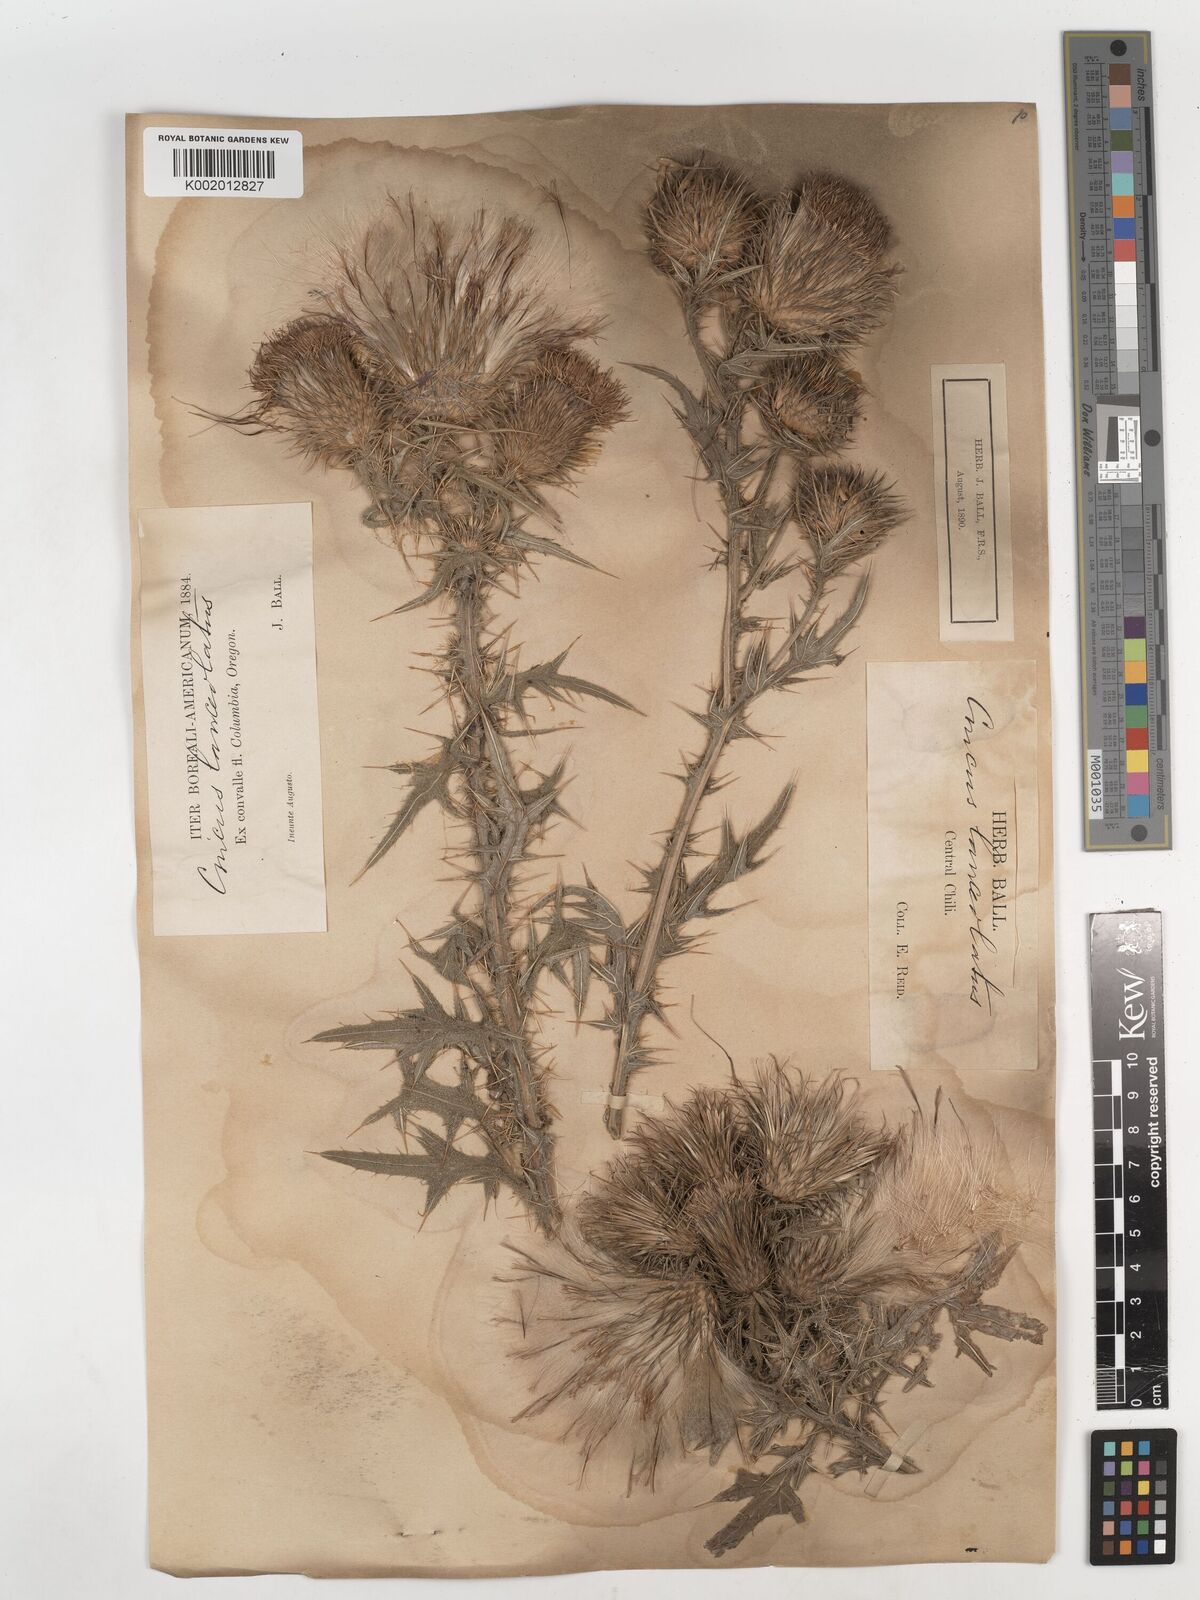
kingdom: Plantae
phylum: Tracheophyta
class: Magnoliopsida
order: Asterales
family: Asteraceae
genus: Cirsium
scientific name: Cirsium
